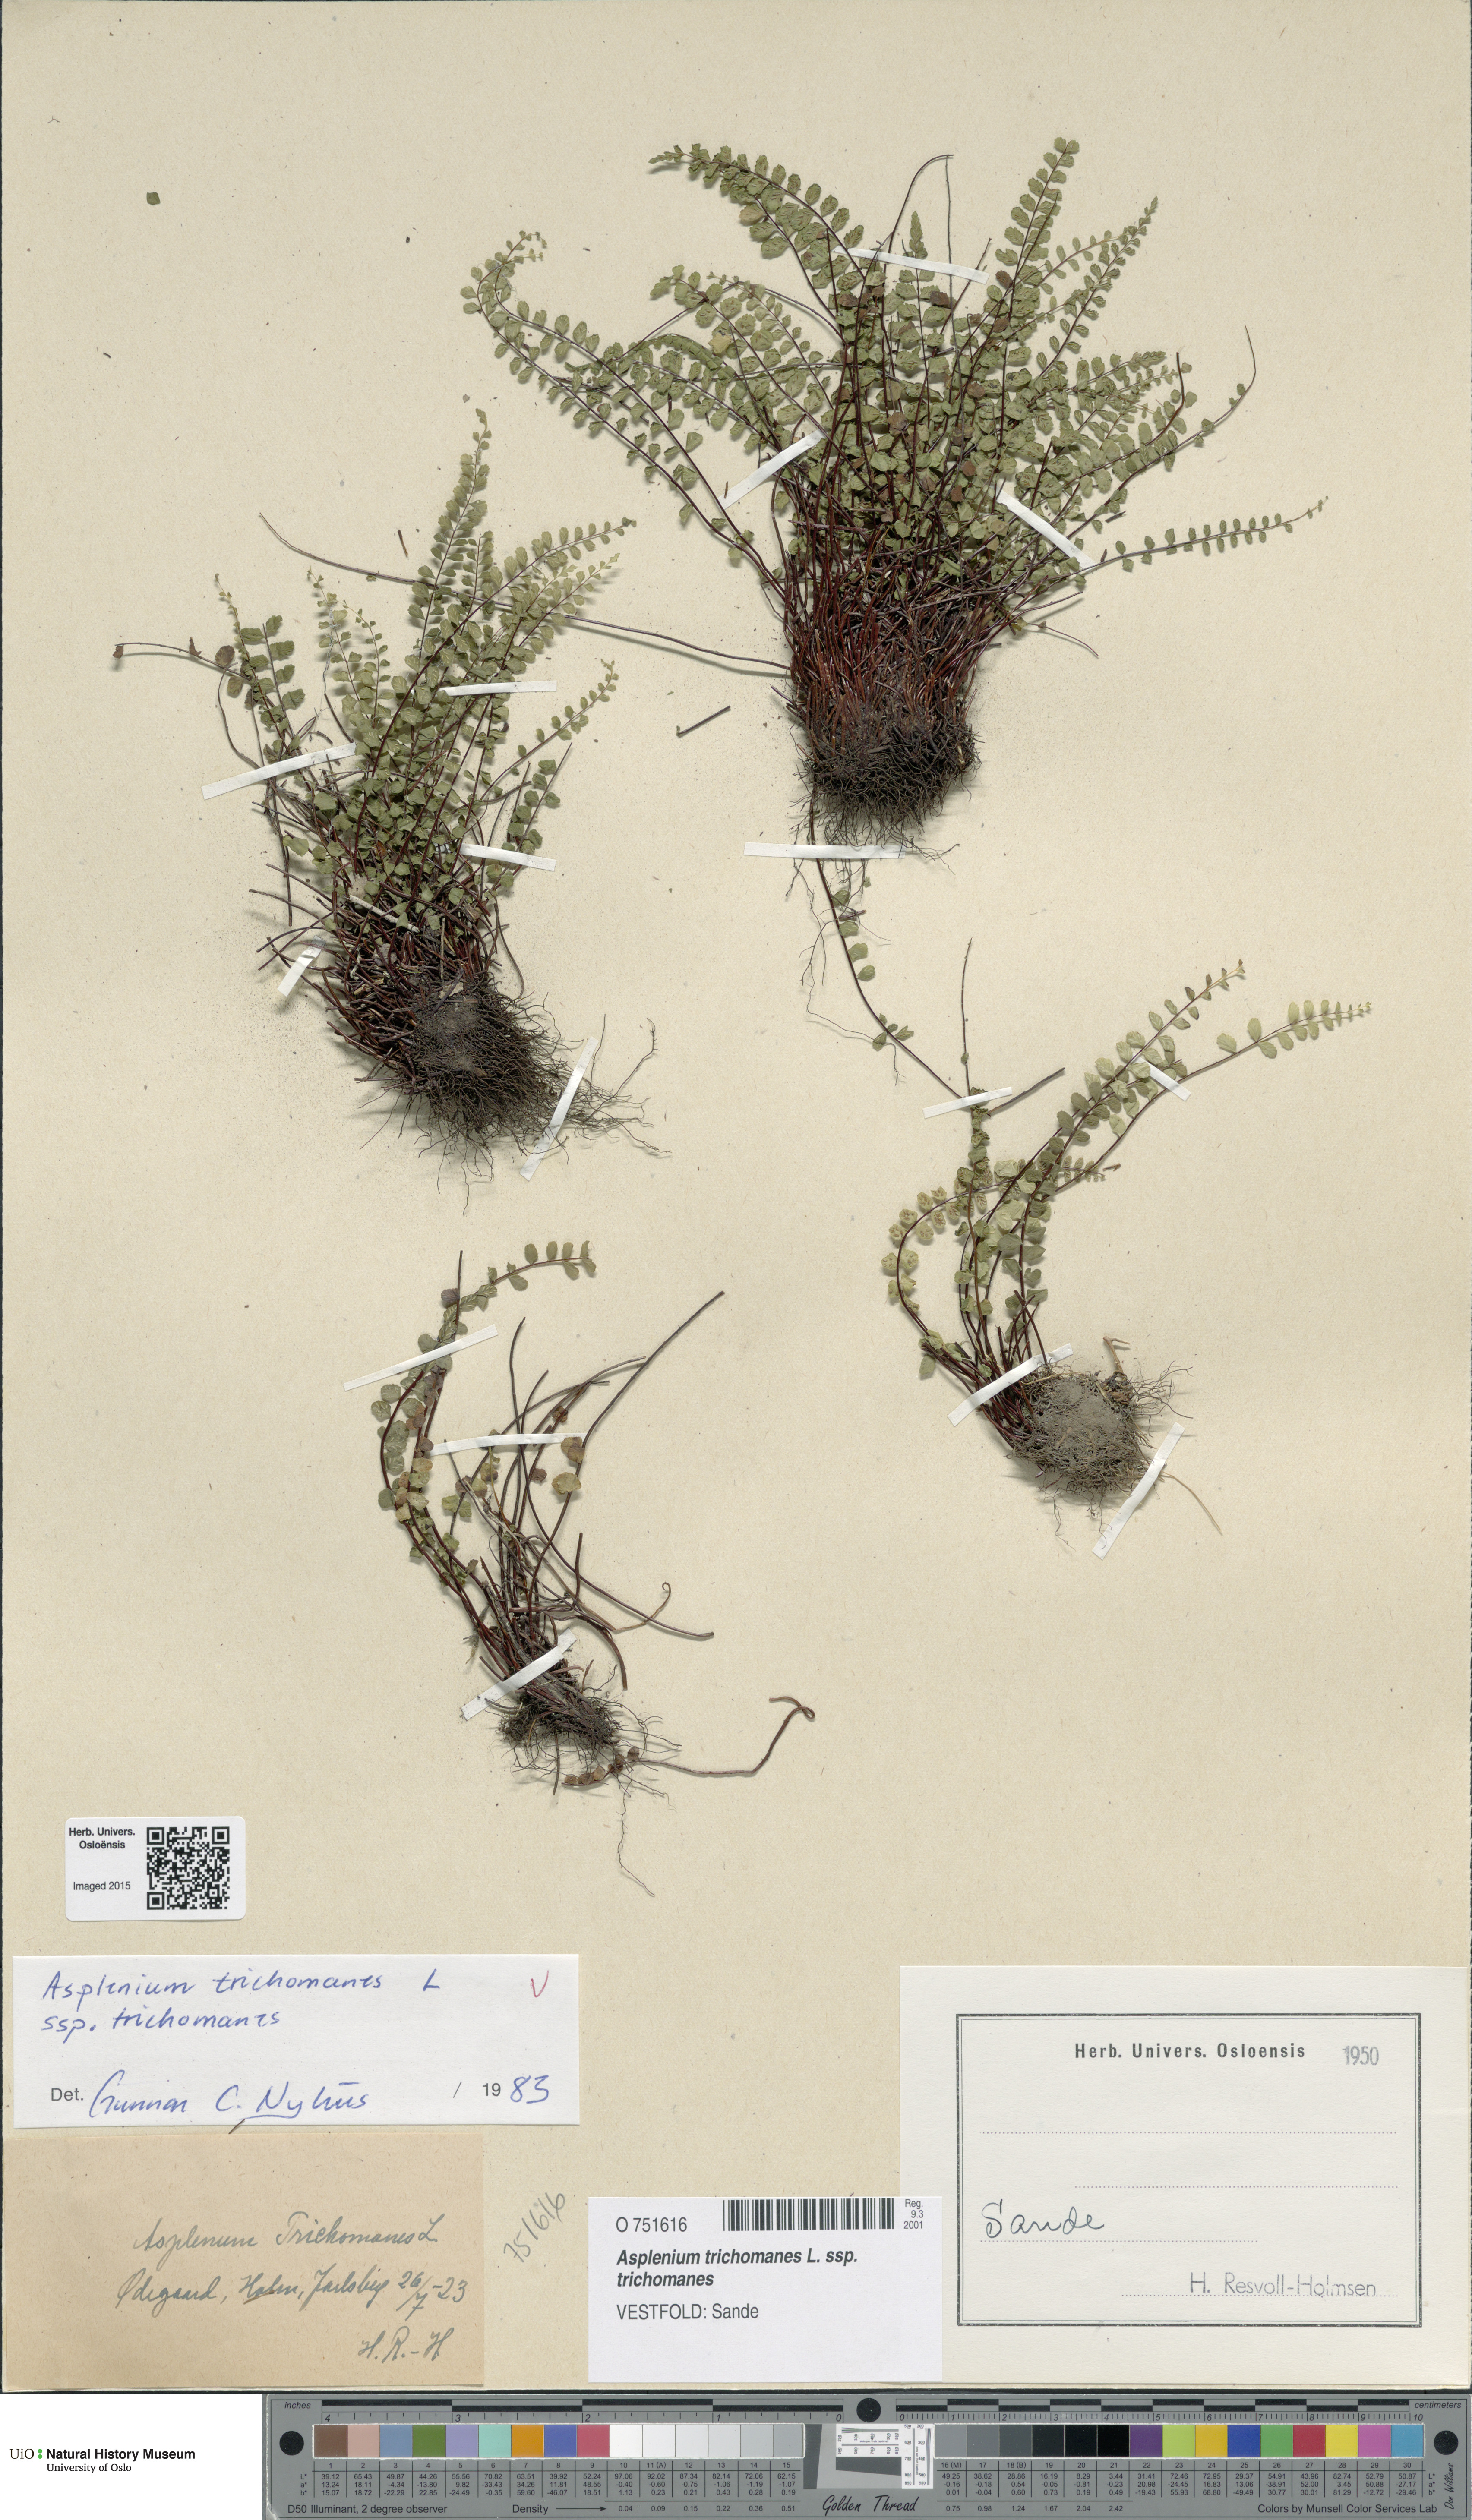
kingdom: Plantae
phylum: Tracheophyta
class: Polypodiopsida
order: Polypodiales
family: Aspleniaceae
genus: Asplenium
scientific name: Asplenium trichomanes
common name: Maidenhair spleenwort
